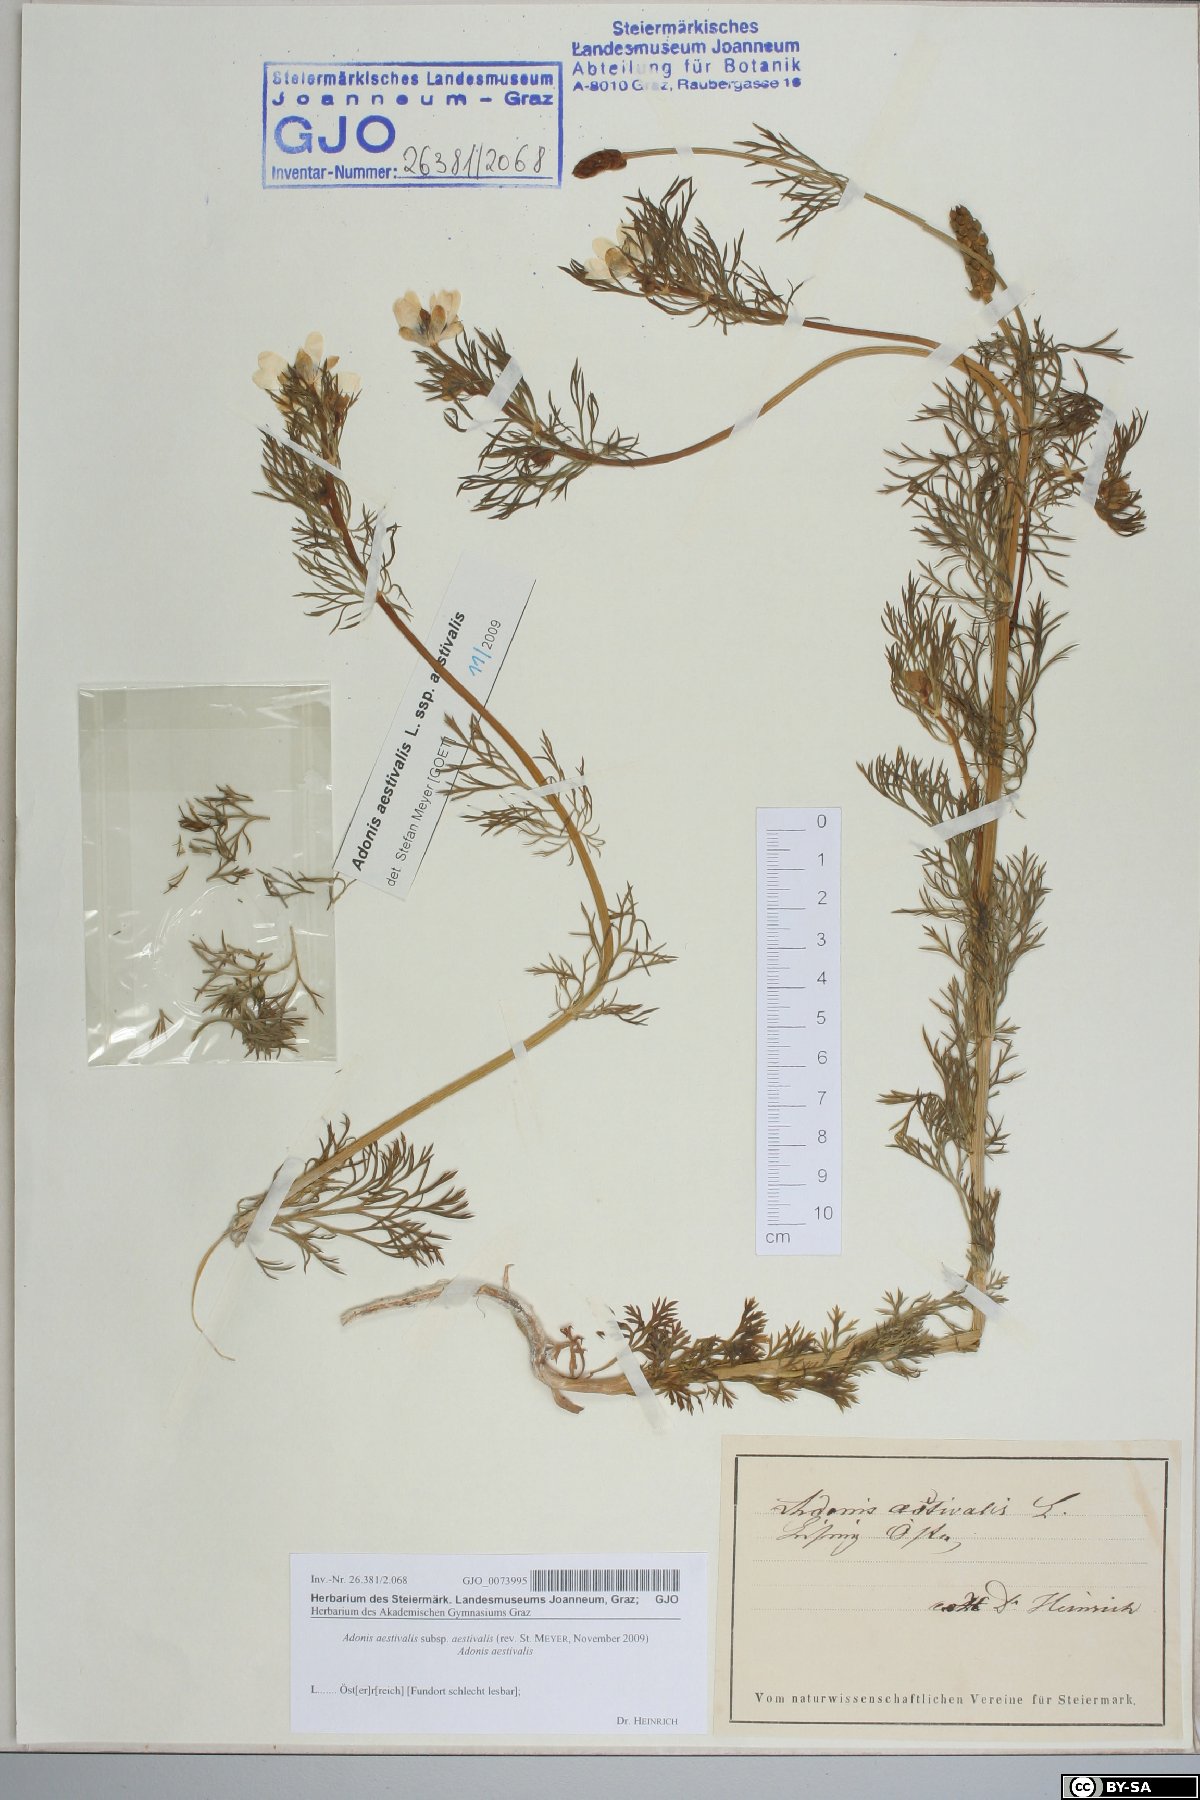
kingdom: Plantae
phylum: Tracheophyta
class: Magnoliopsida
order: Ranunculales
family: Ranunculaceae
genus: Adonis
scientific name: Adonis aestivalis
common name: Summer pheasant's-eye
